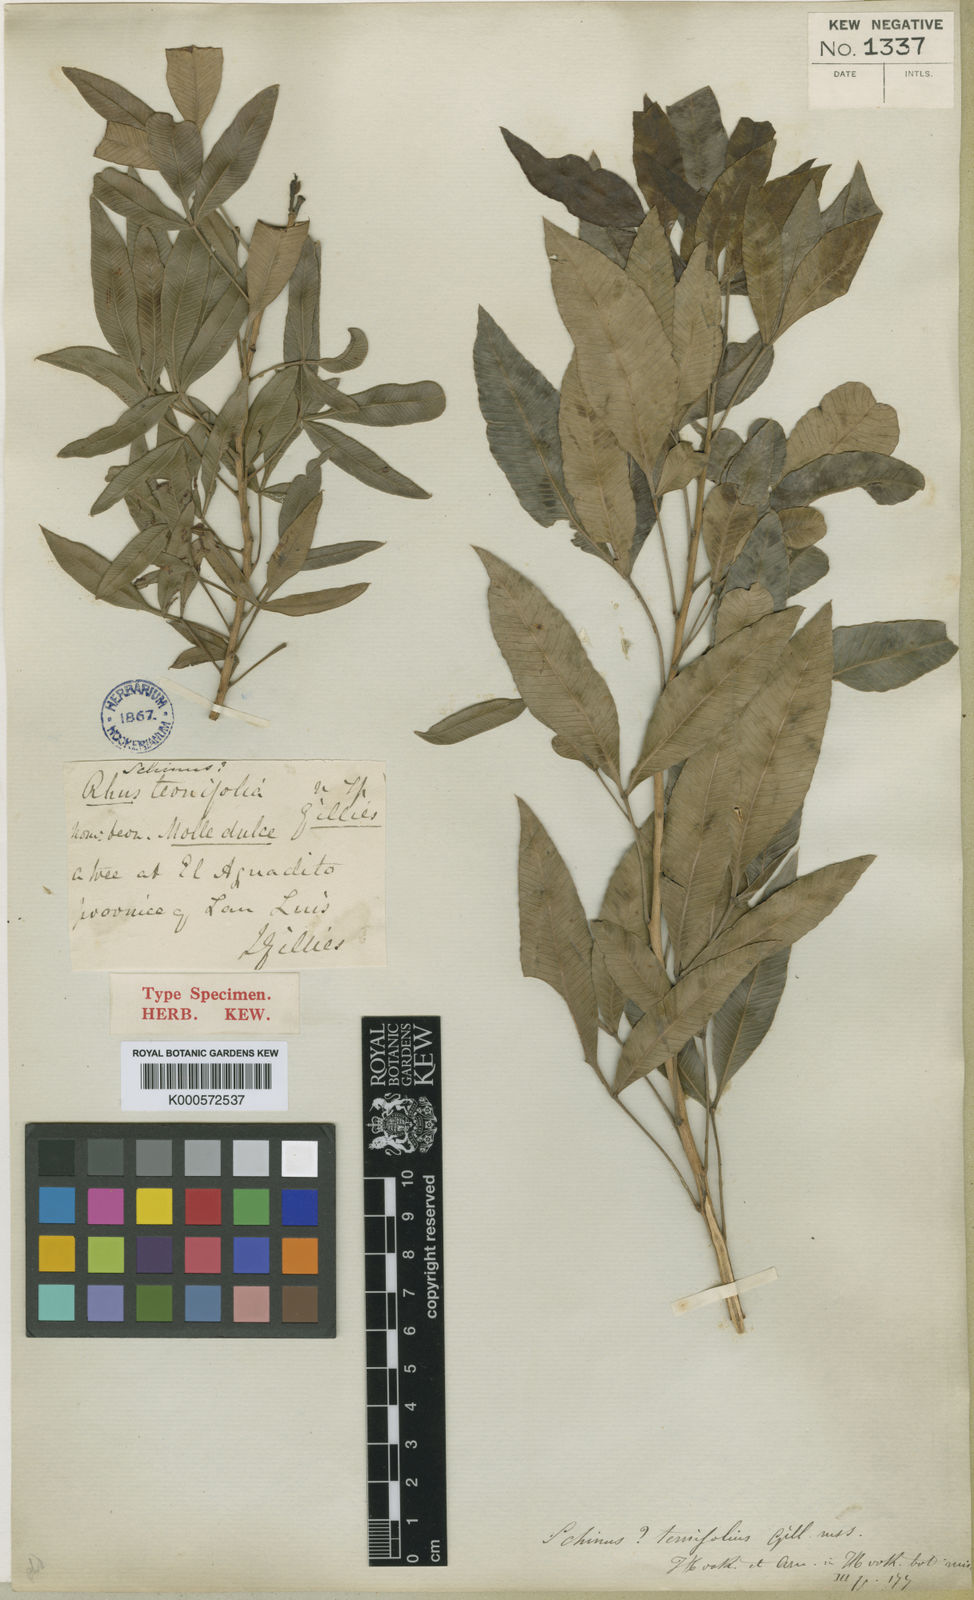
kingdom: Plantae
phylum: Tracheophyta
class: Magnoliopsida
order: Sapindales
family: Anacardiaceae
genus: Lithraea
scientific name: Lithraea molleoides
